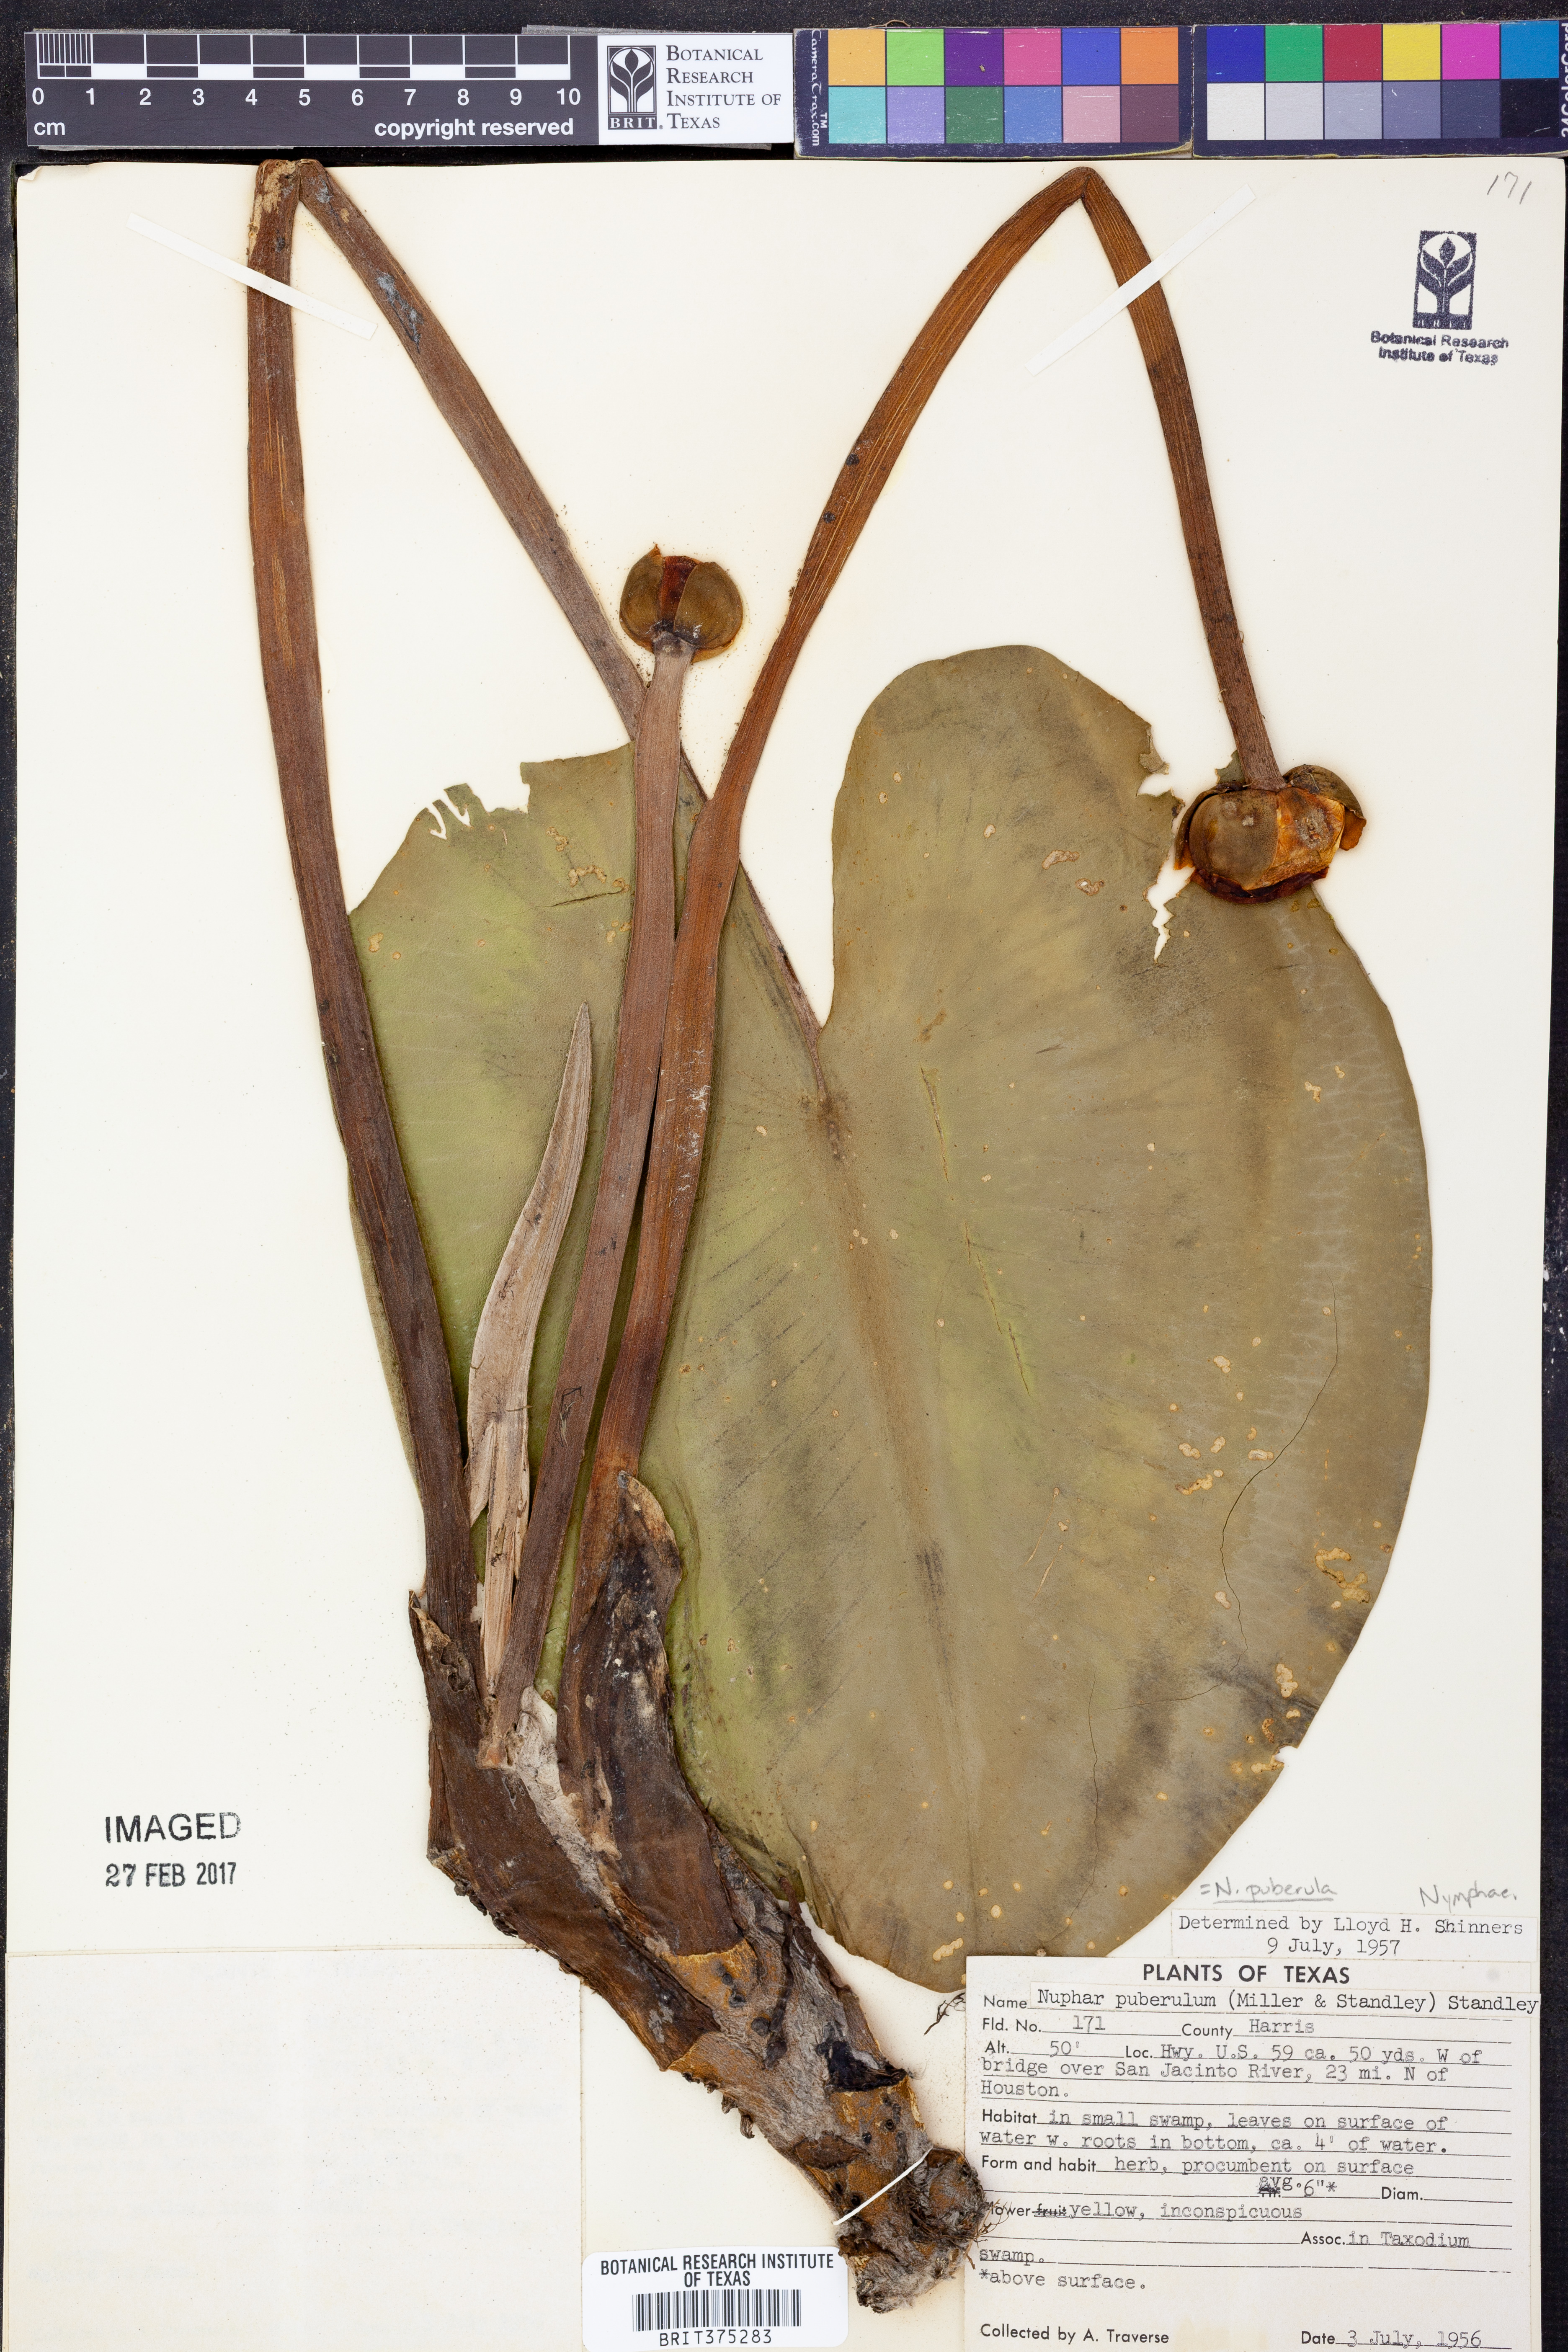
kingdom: Plantae
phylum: Tracheophyta
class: Magnoliopsida
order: Nymphaeales
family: Nymphaeaceae
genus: Nuphar
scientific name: Nuphar advena
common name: Spatter-dock
